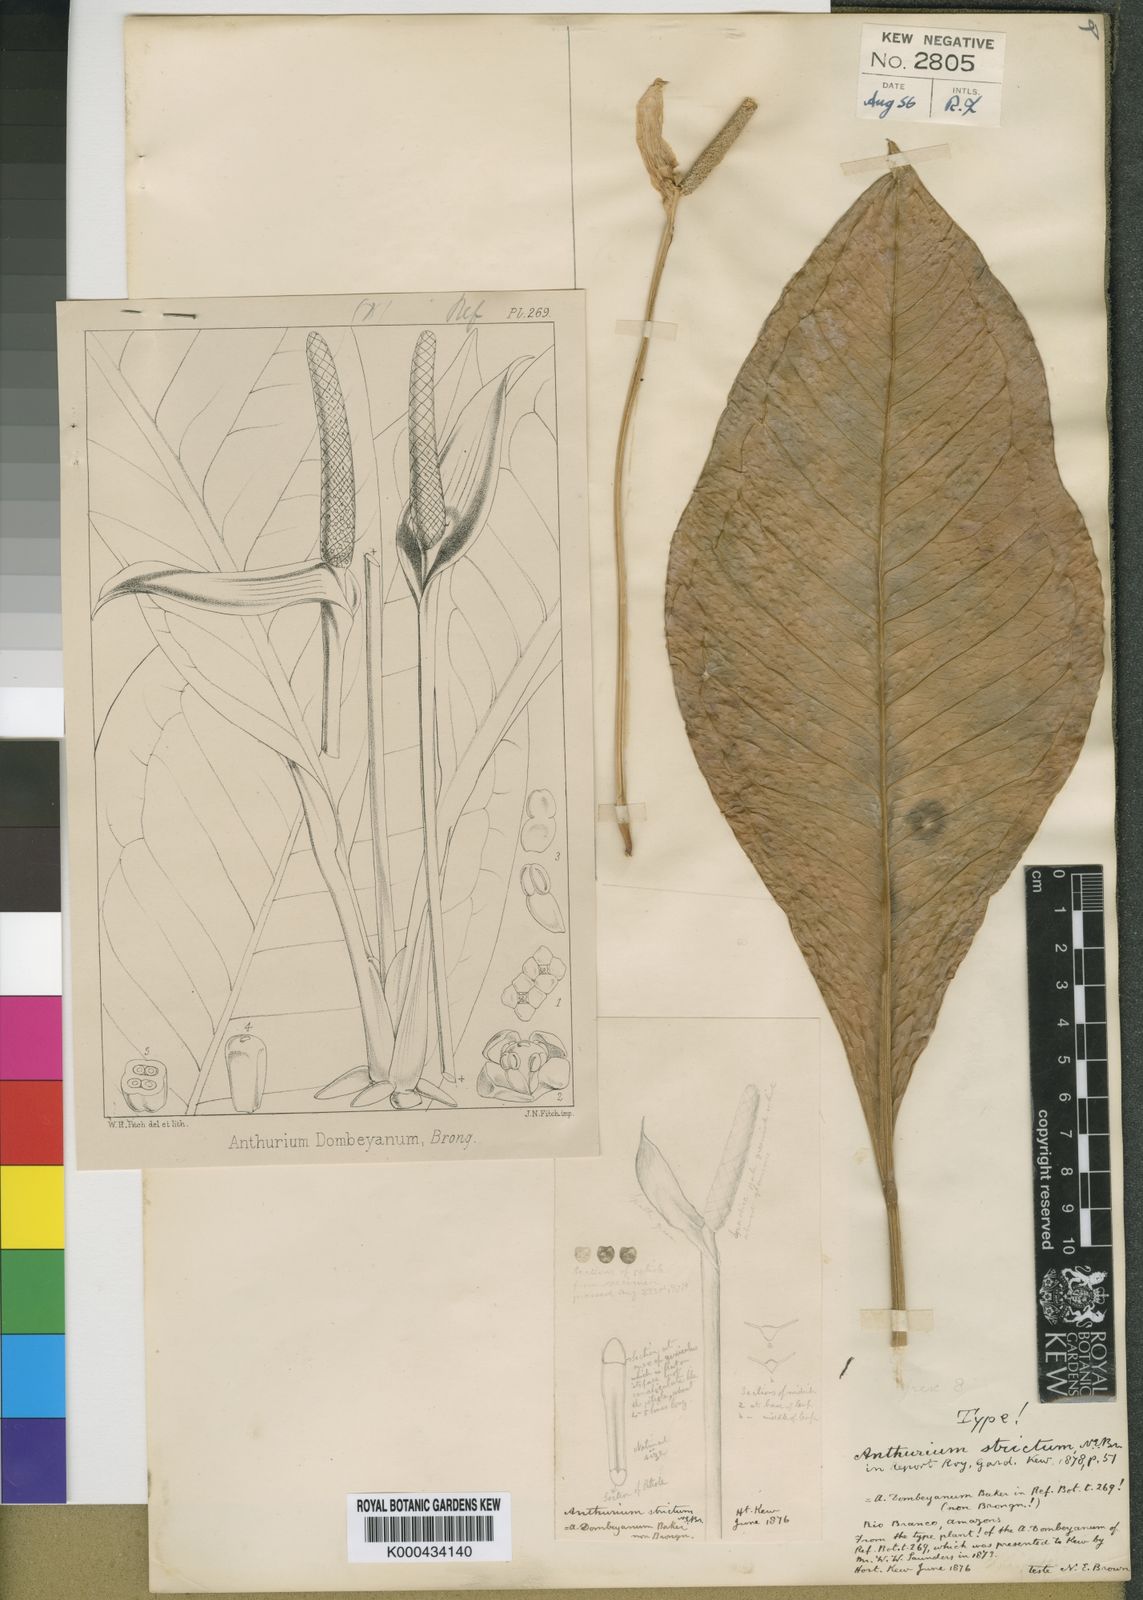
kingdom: Plantae
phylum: Tracheophyta
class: Liliopsida
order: Alismatales
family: Araceae
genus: Anthurium
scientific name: Anthurium dombeyanum
